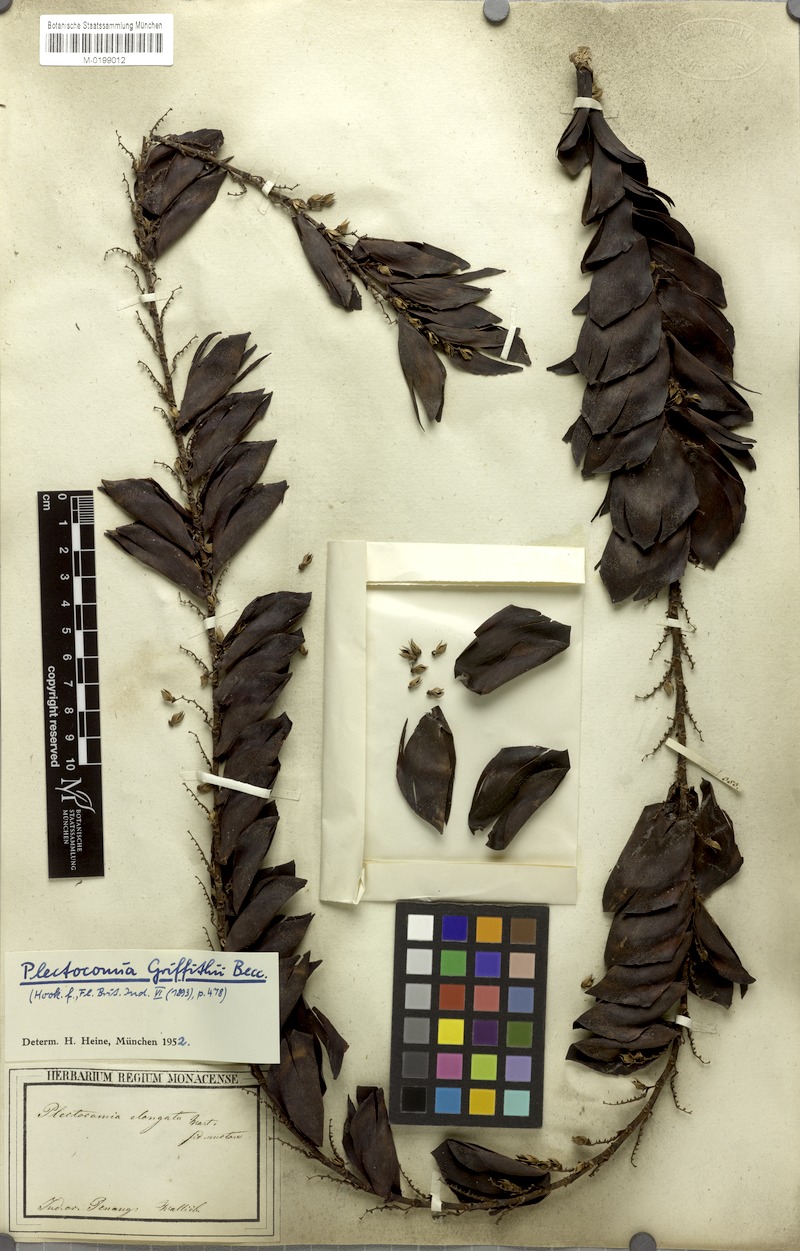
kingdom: Plantae
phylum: Tracheophyta
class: Liliopsida
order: Arecales
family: Arecaceae
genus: Plectocomia
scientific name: Plectocomia elongata
